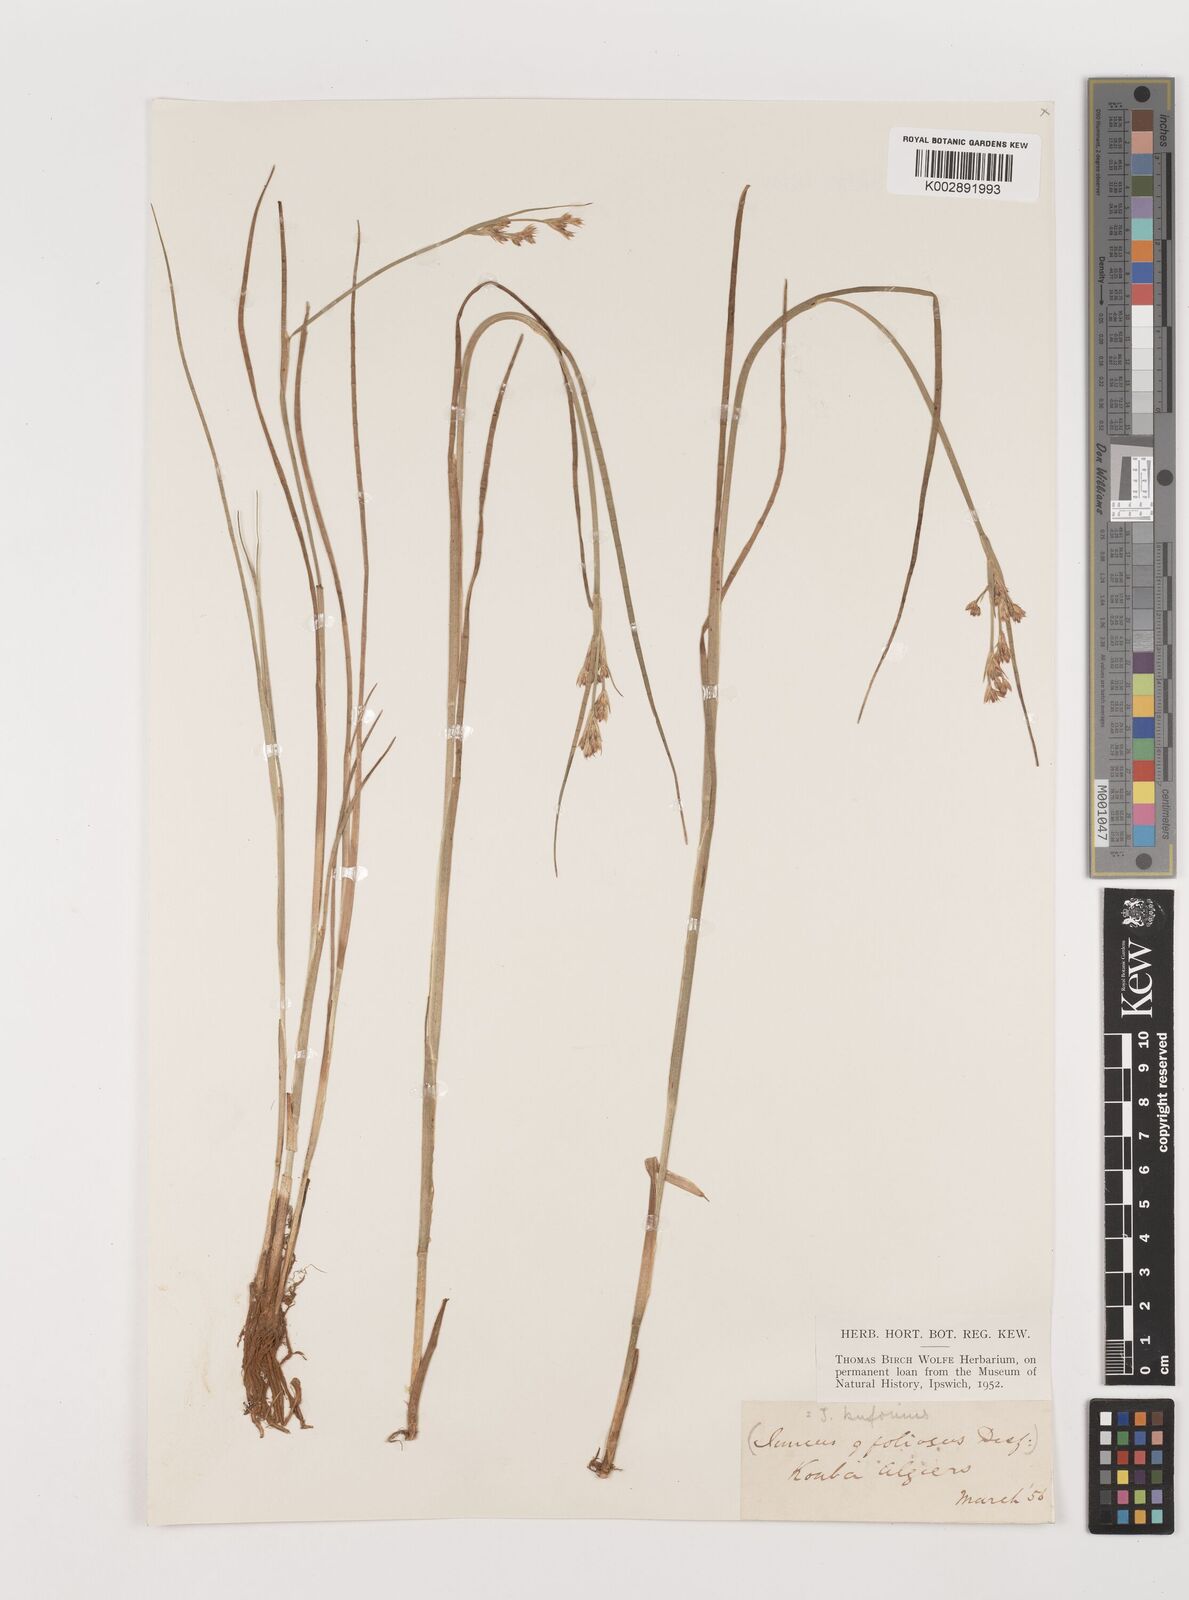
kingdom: Plantae
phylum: Tracheophyta
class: Liliopsida
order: Poales
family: Juncaceae
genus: Juncus
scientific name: Juncus bufonius
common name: Toad rush
